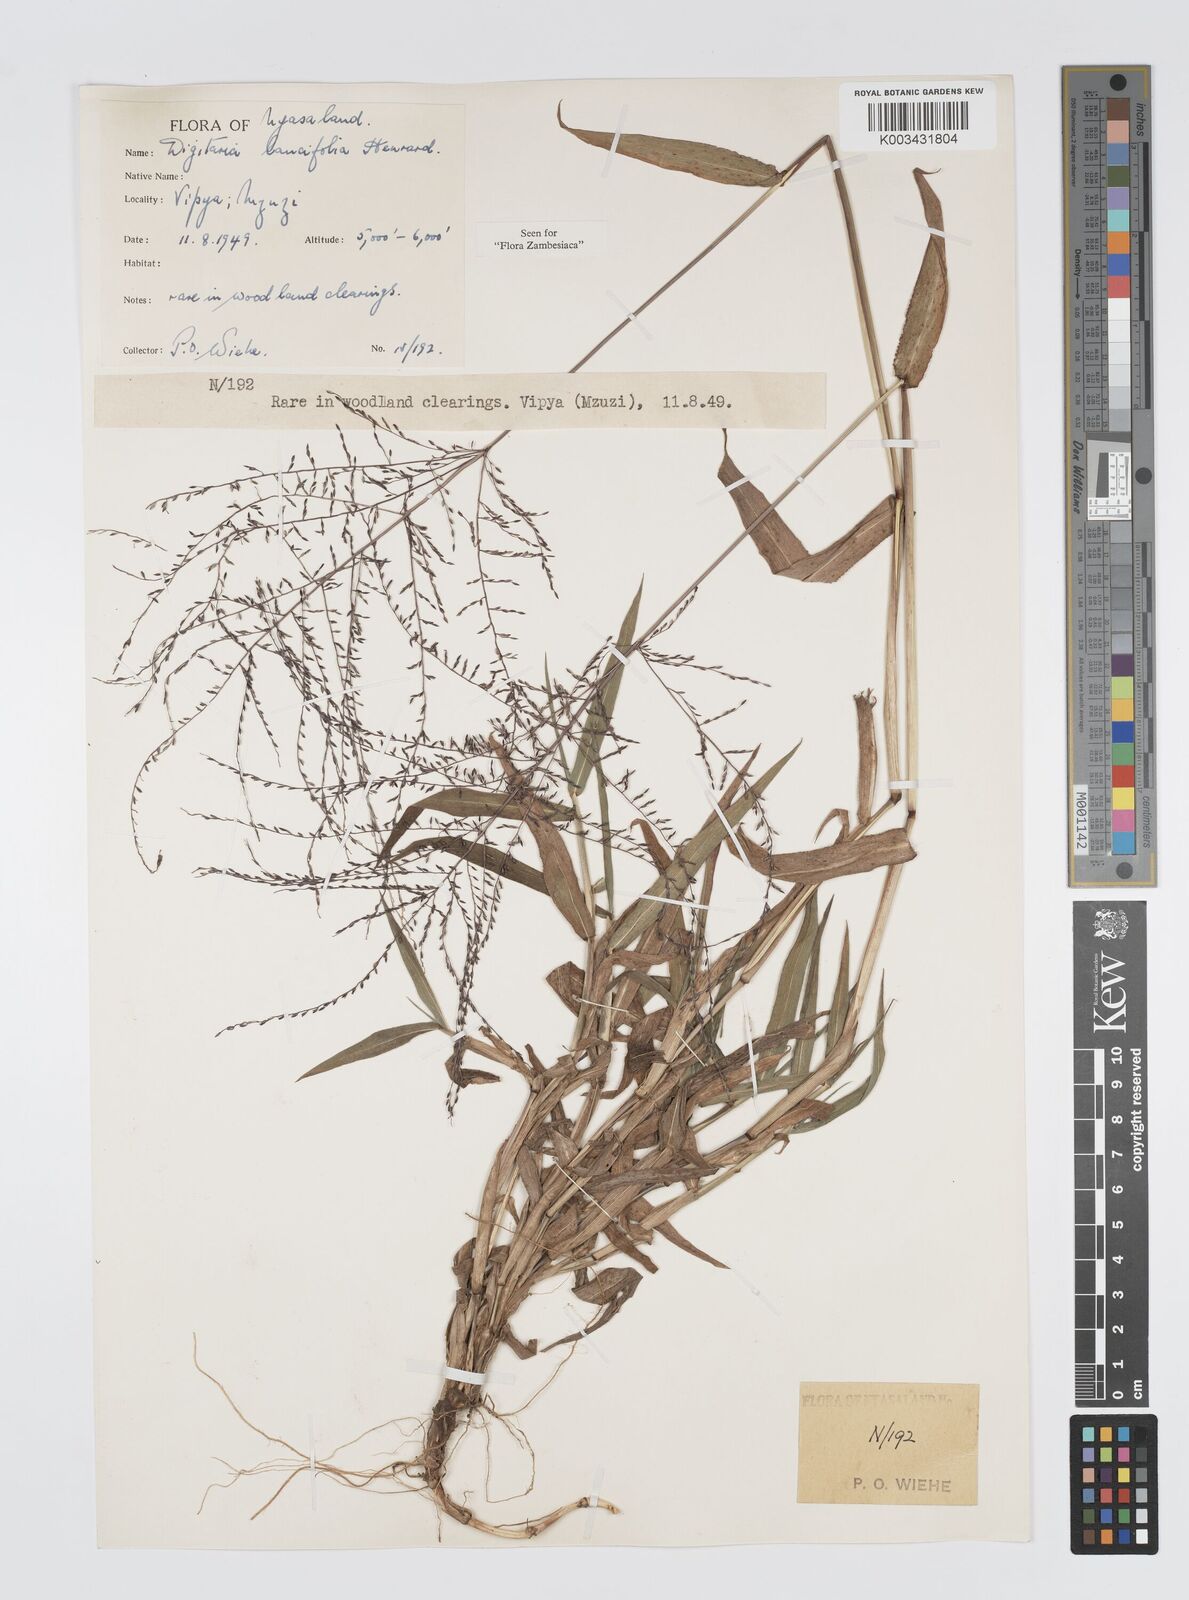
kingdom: Plantae
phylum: Tracheophyta
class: Liliopsida
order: Poales
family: Poaceae
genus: Digitaria
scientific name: Digitaria pearsonii
